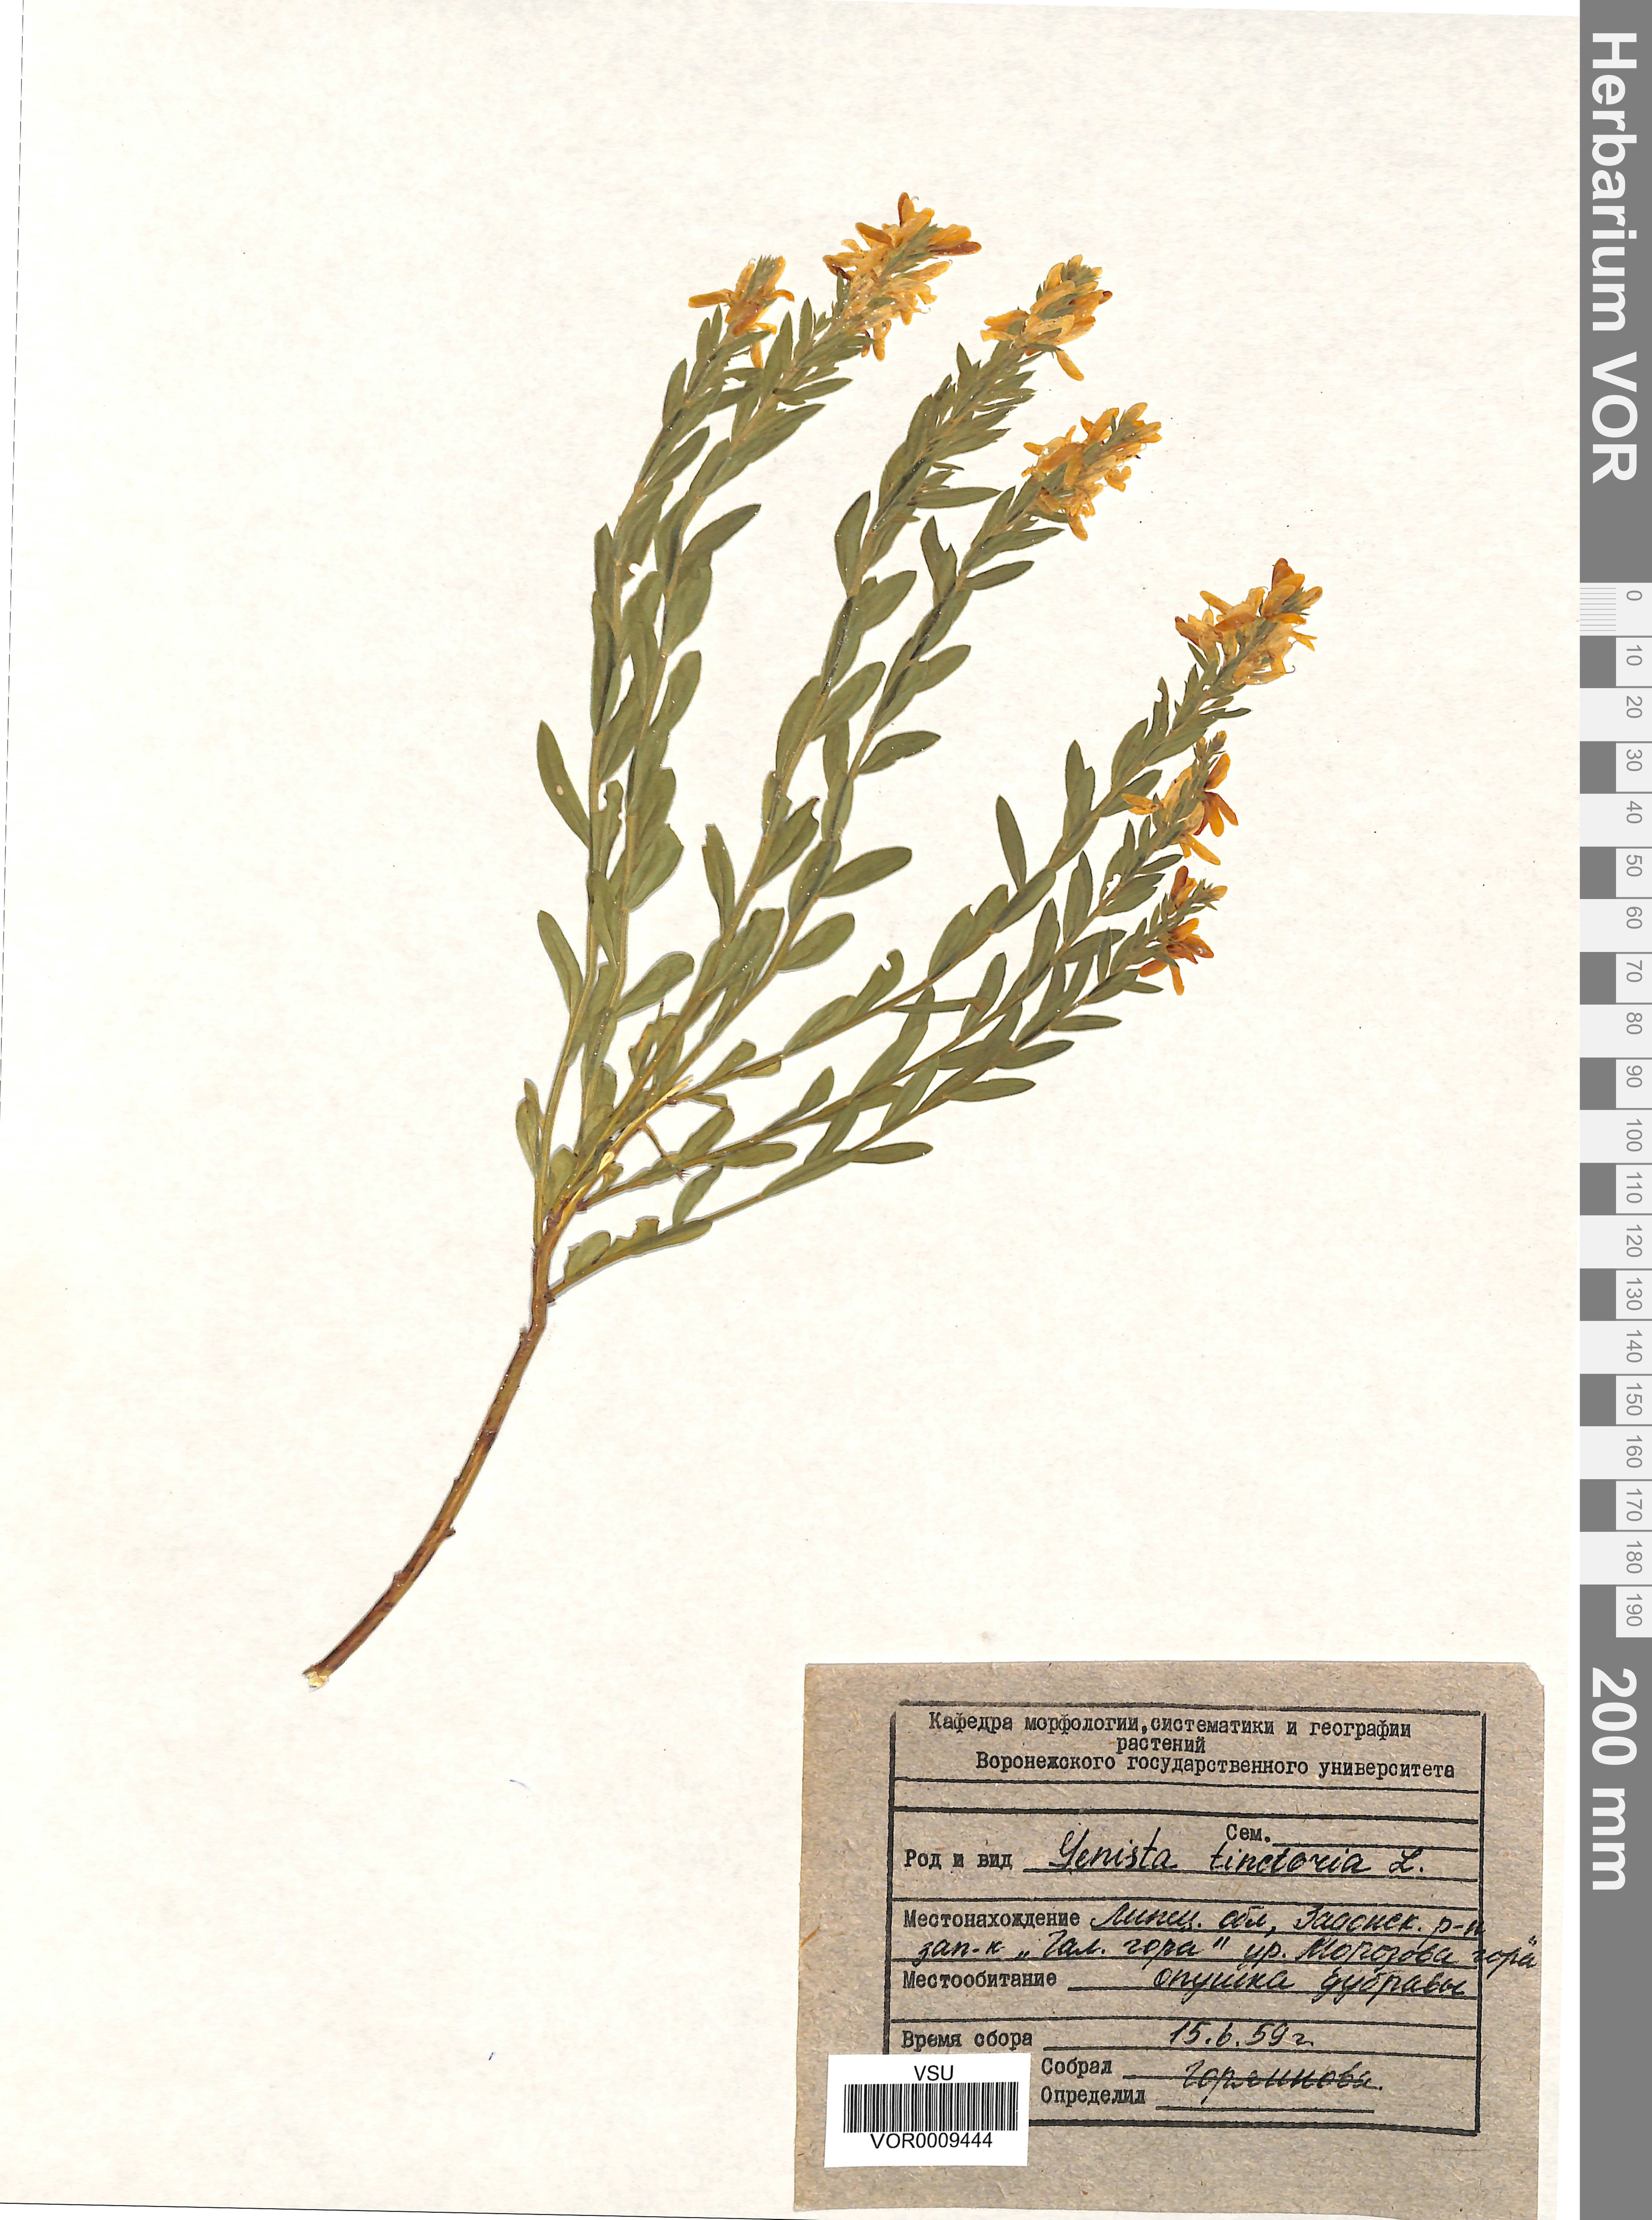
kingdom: Plantae
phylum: Tracheophyta
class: Magnoliopsida
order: Fabales
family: Fabaceae
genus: Genista
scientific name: Genista tinctoria
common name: Dyer's greenweed
